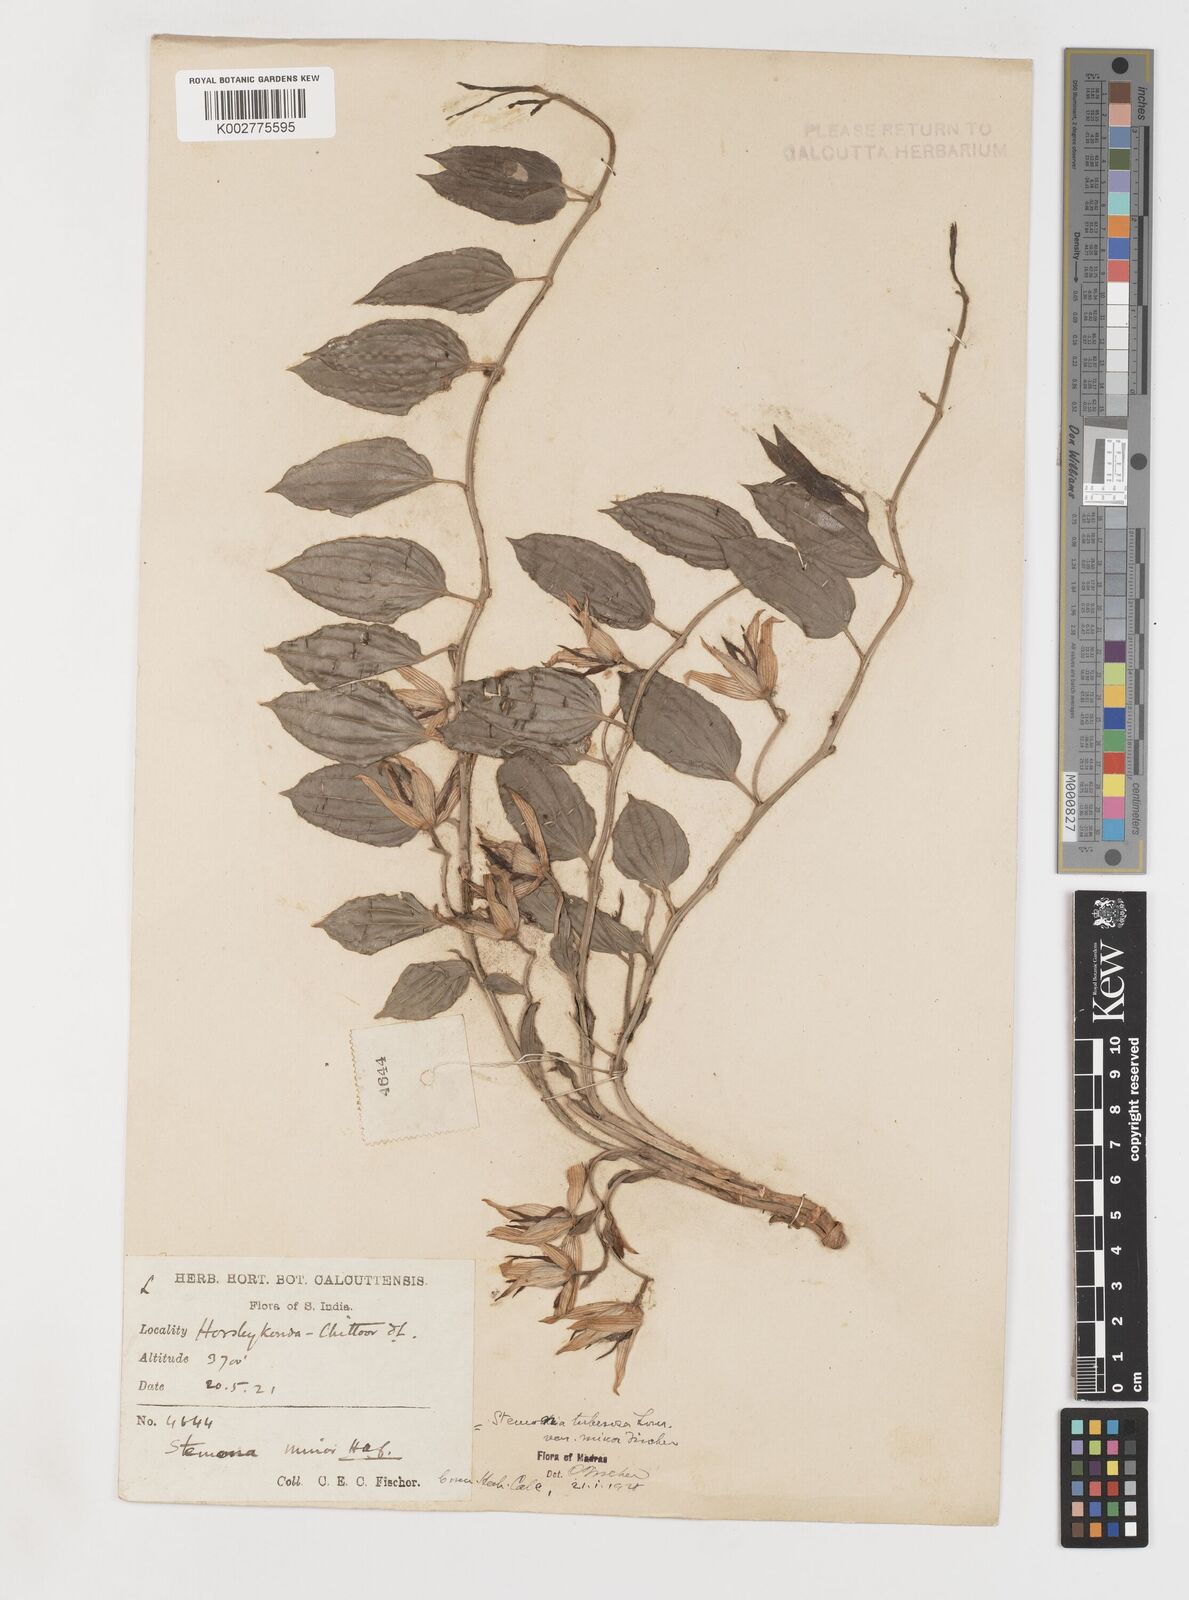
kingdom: Plantae
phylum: Tracheophyta
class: Liliopsida
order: Pandanales
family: Stemonaceae
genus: Stemona
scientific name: Stemona tuberosa
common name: Stemona
